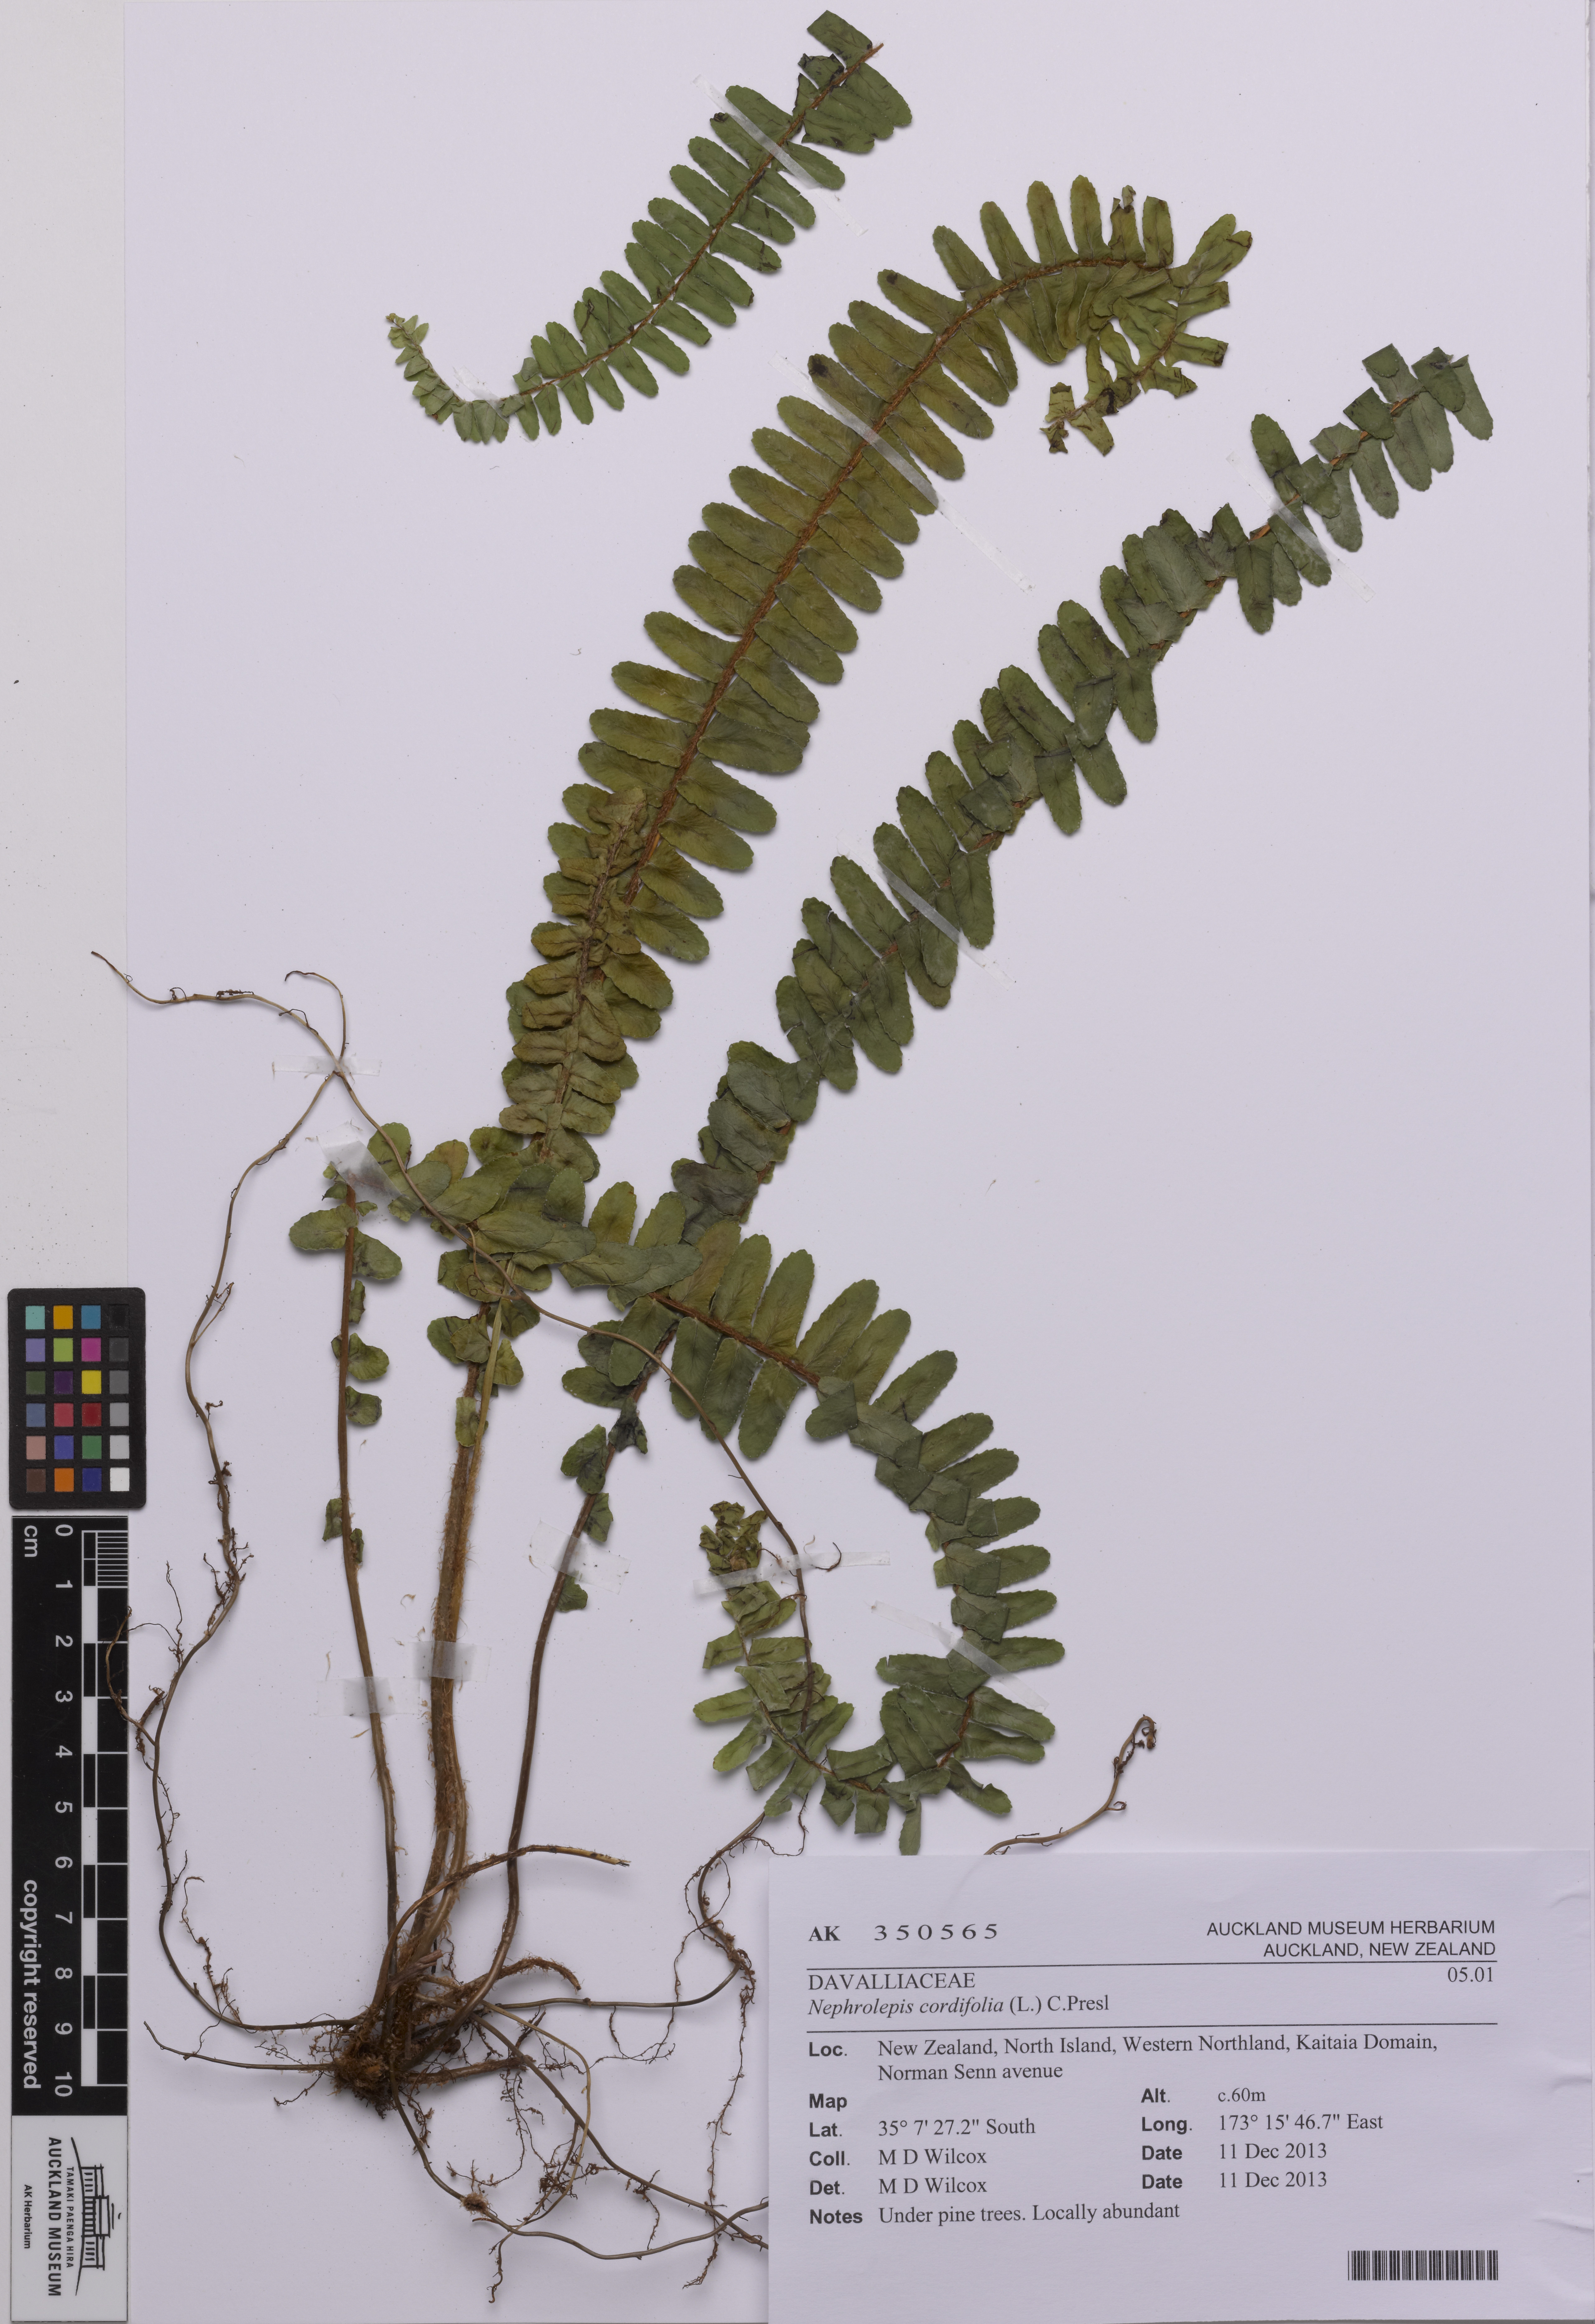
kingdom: Plantae
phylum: Tracheophyta
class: Polypodiopsida
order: Polypodiales
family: Nephrolepidaceae
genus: Nephrolepis
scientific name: Nephrolepis cordifolia
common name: Narrow swordfern
